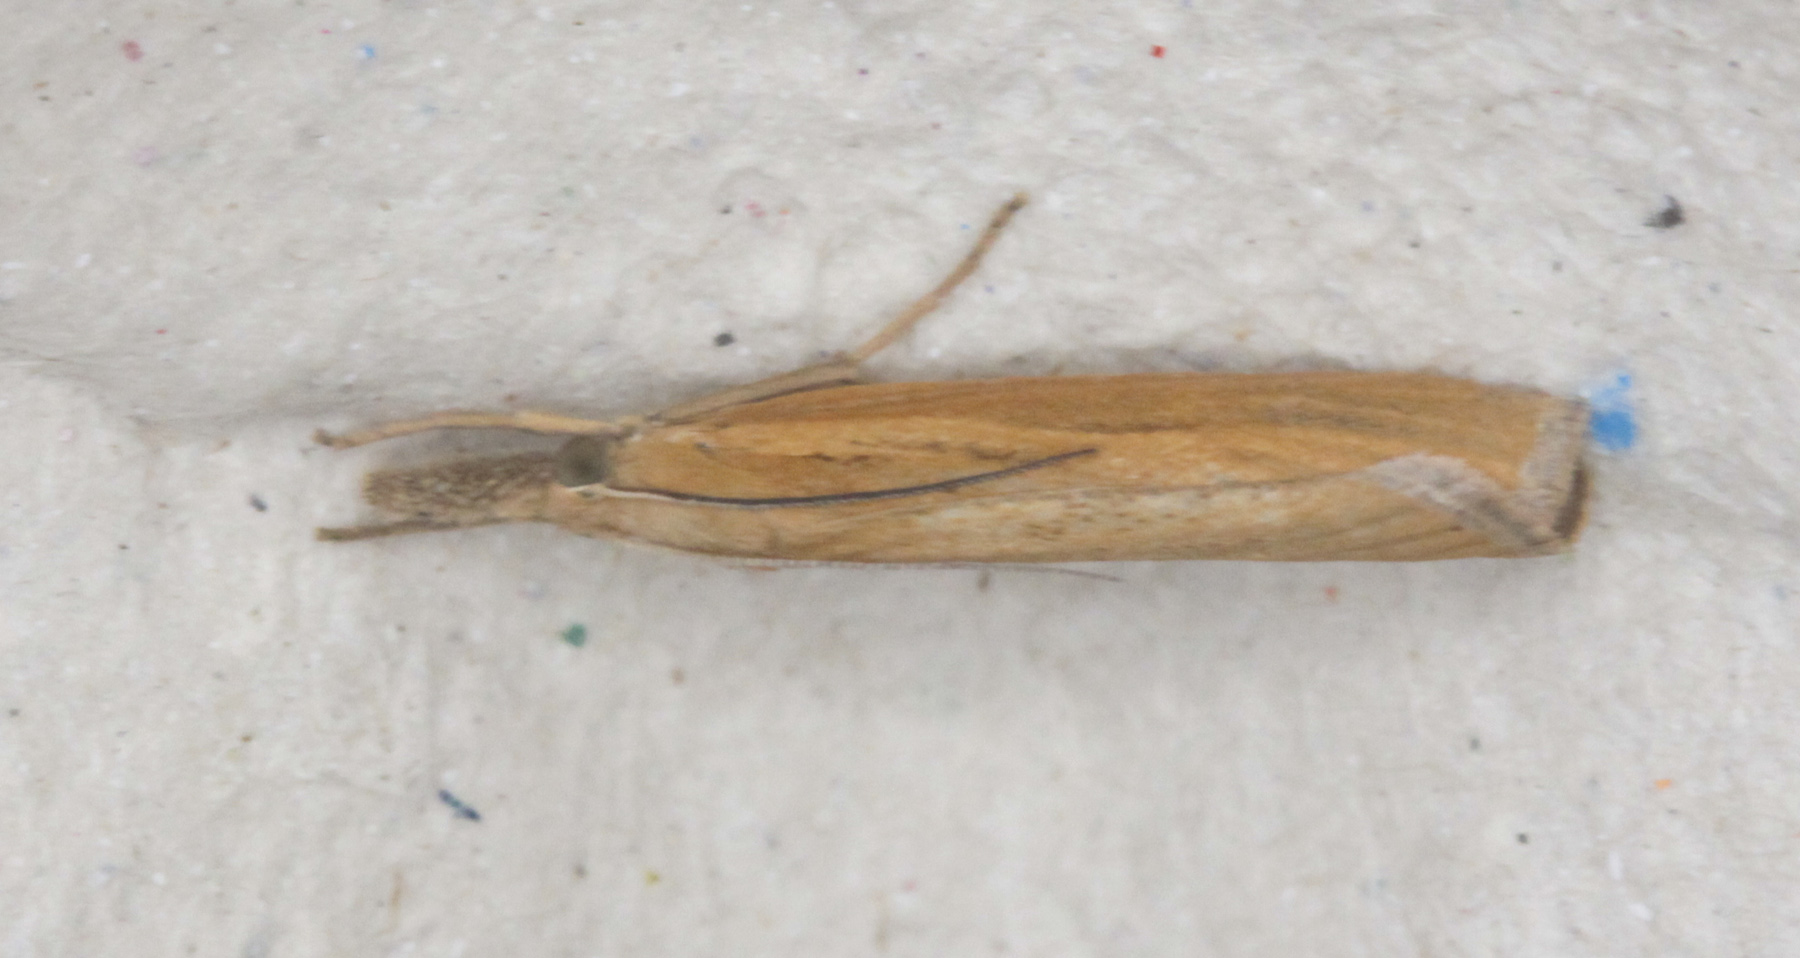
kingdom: Animalia
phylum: Arthropoda
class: Insecta
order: Lepidoptera
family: Crambidae
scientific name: Crambidae
